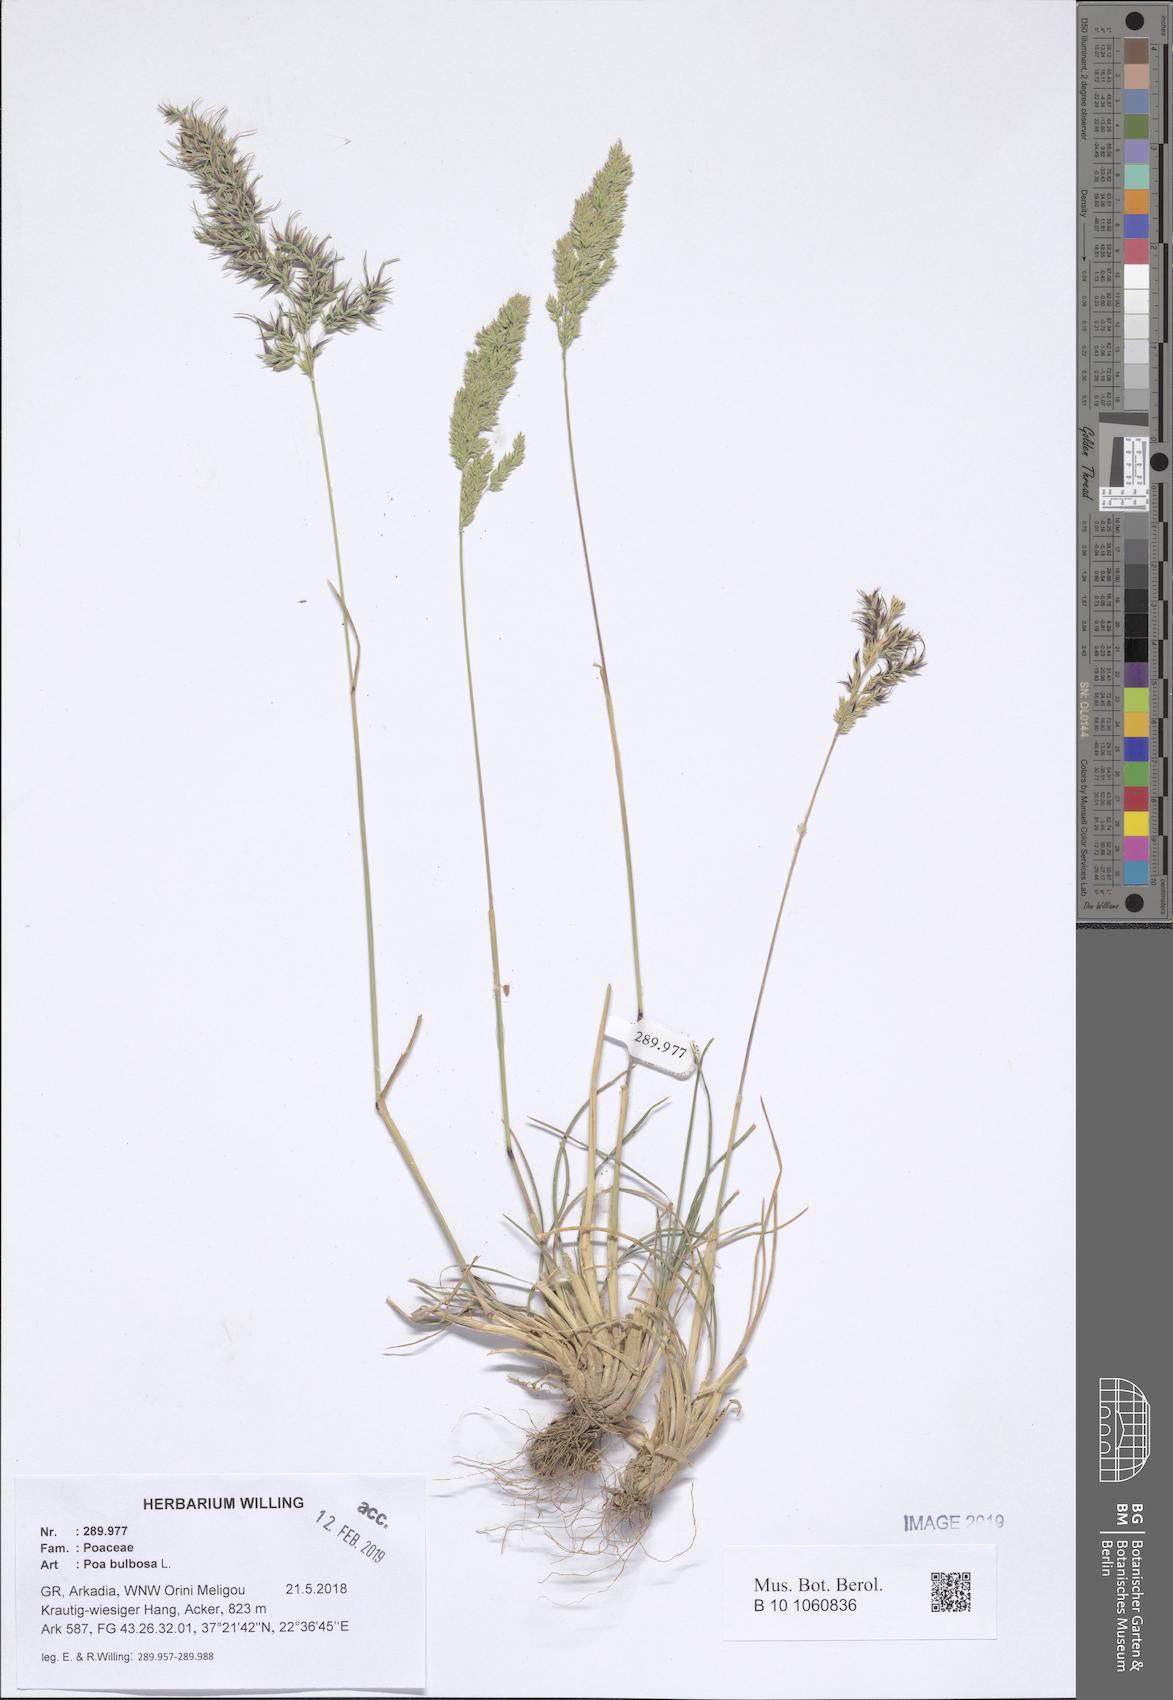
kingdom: Plantae
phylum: Tracheophyta
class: Liliopsida
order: Poales
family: Poaceae
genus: Poa
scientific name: Poa bulbosa
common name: Bulbous bluegrass
